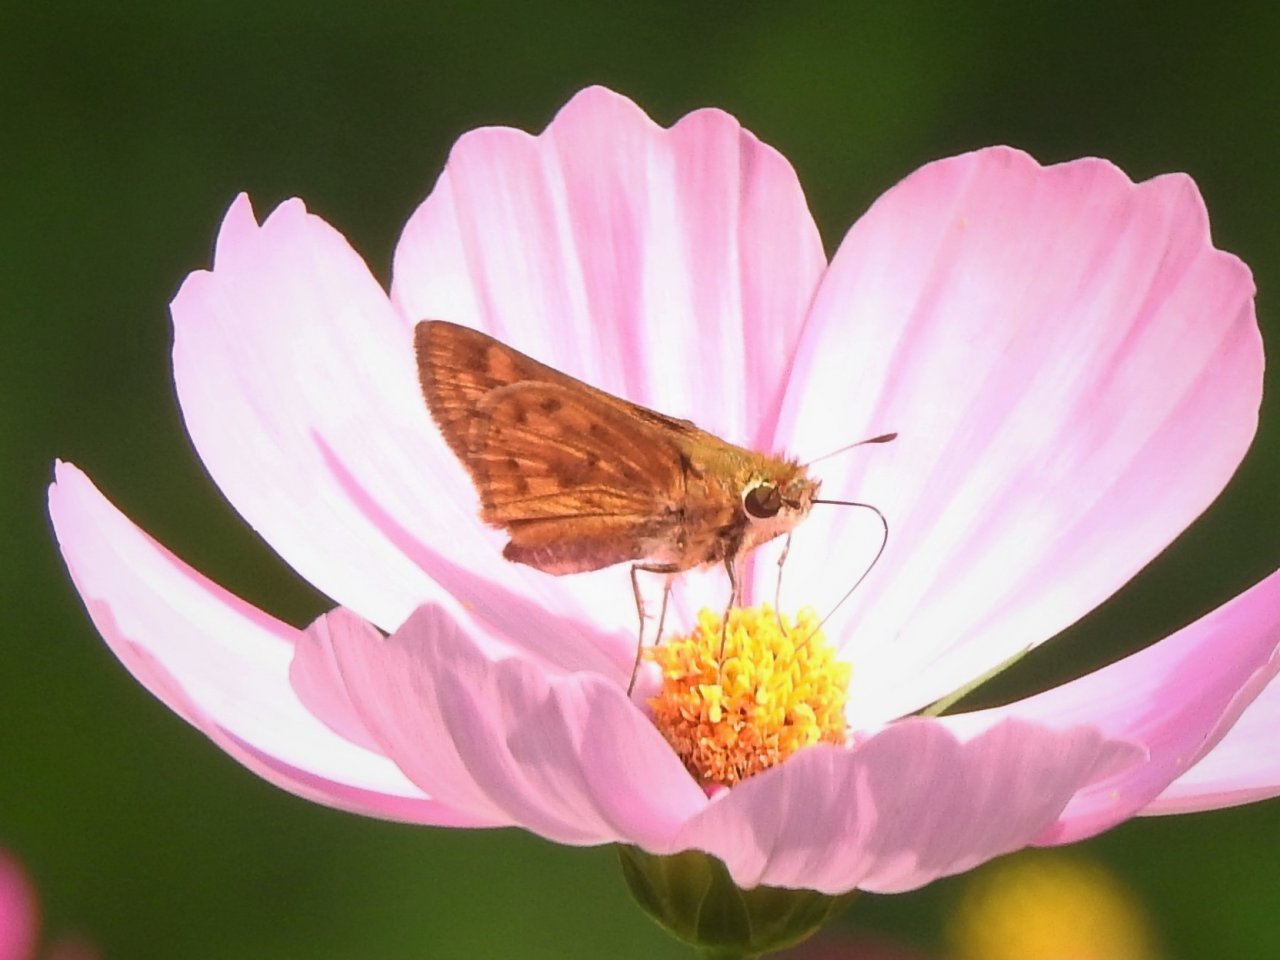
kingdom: Animalia
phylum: Arthropoda
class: Insecta
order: Lepidoptera
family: Hesperiidae
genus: Hylephila
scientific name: Hylephila phyleus
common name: Fiery Skipper
